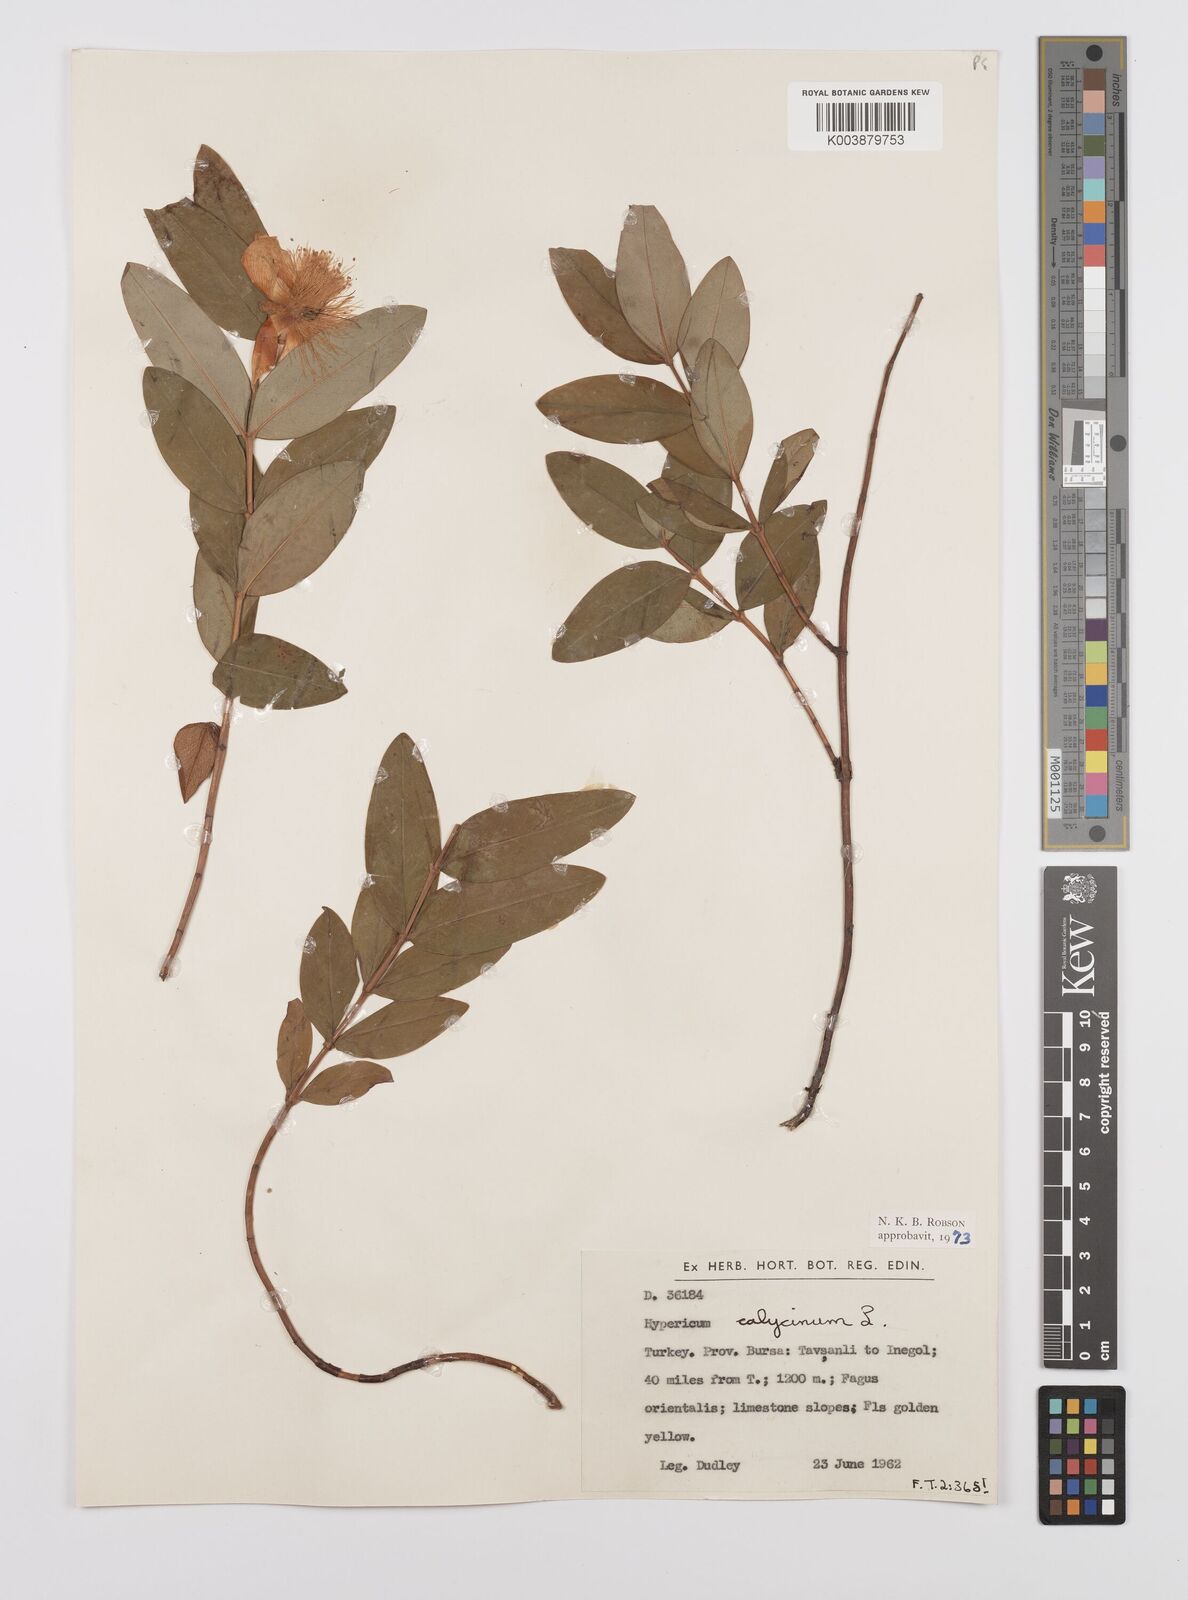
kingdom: Plantae
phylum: Tracheophyta
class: Magnoliopsida
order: Malpighiales
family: Hypericaceae
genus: Hypericum
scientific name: Hypericum calycinum
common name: Rose-of-sharon
